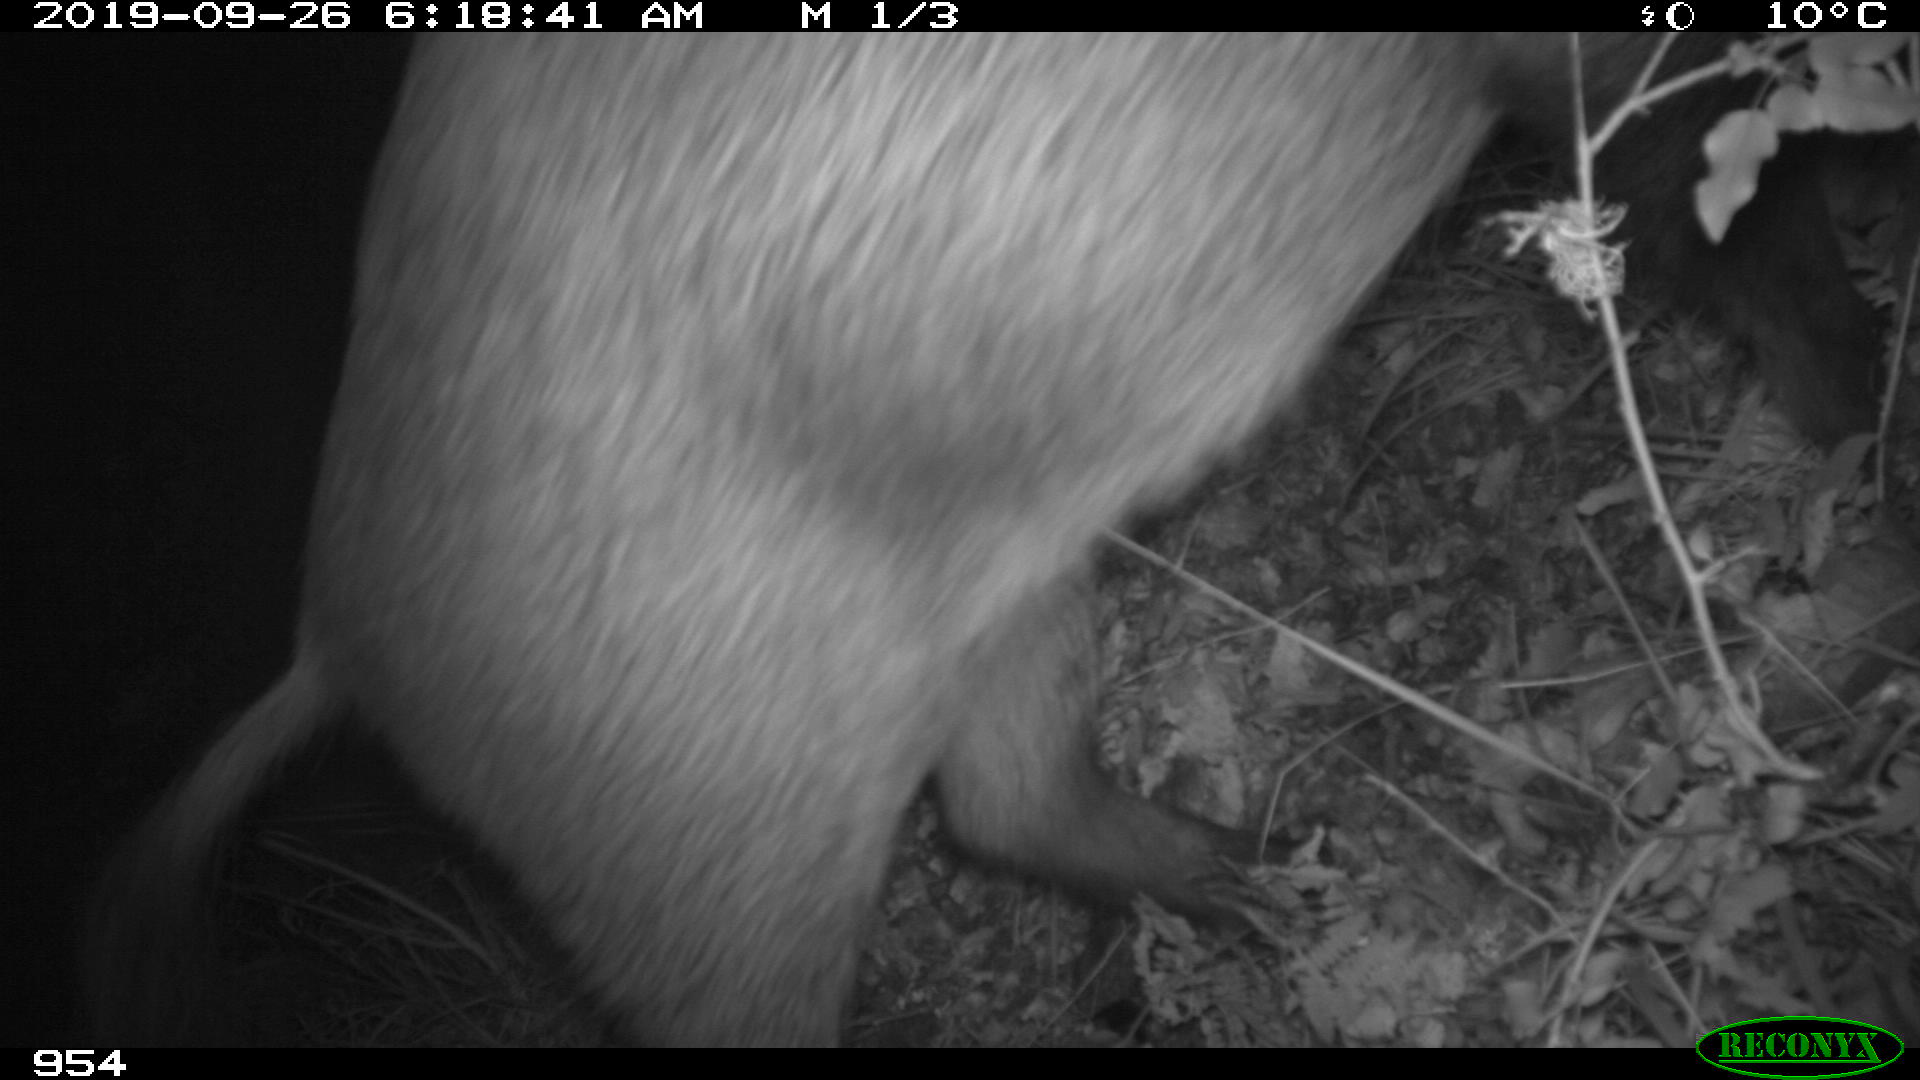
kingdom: Animalia
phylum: Chordata
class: Mammalia
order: Artiodactyla
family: Suidae
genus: Sus
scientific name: Sus scrofa
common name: Wild boar
